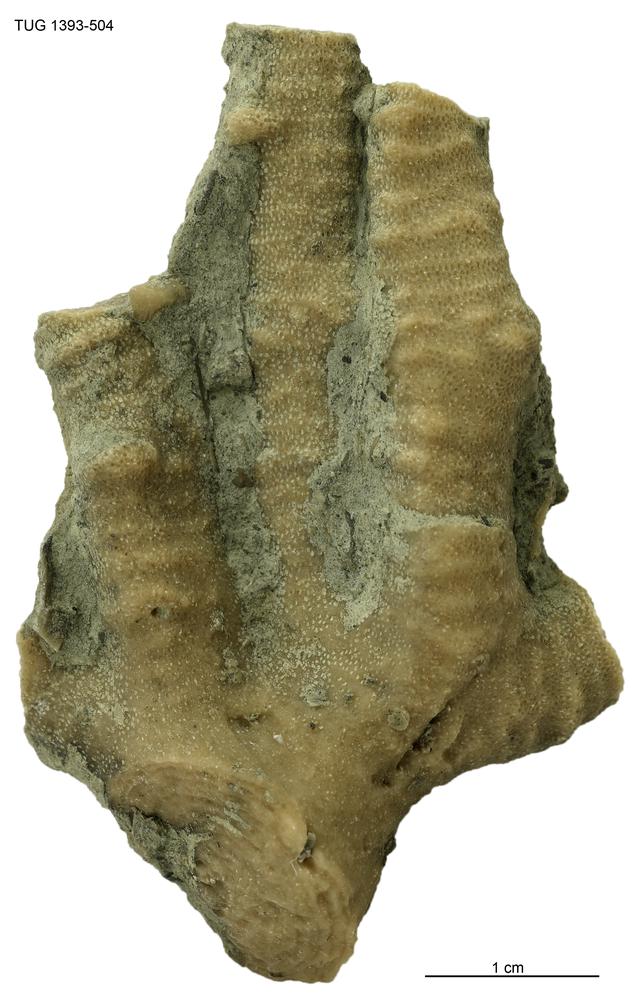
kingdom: Animalia
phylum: Bryozoa
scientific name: Bryozoa
